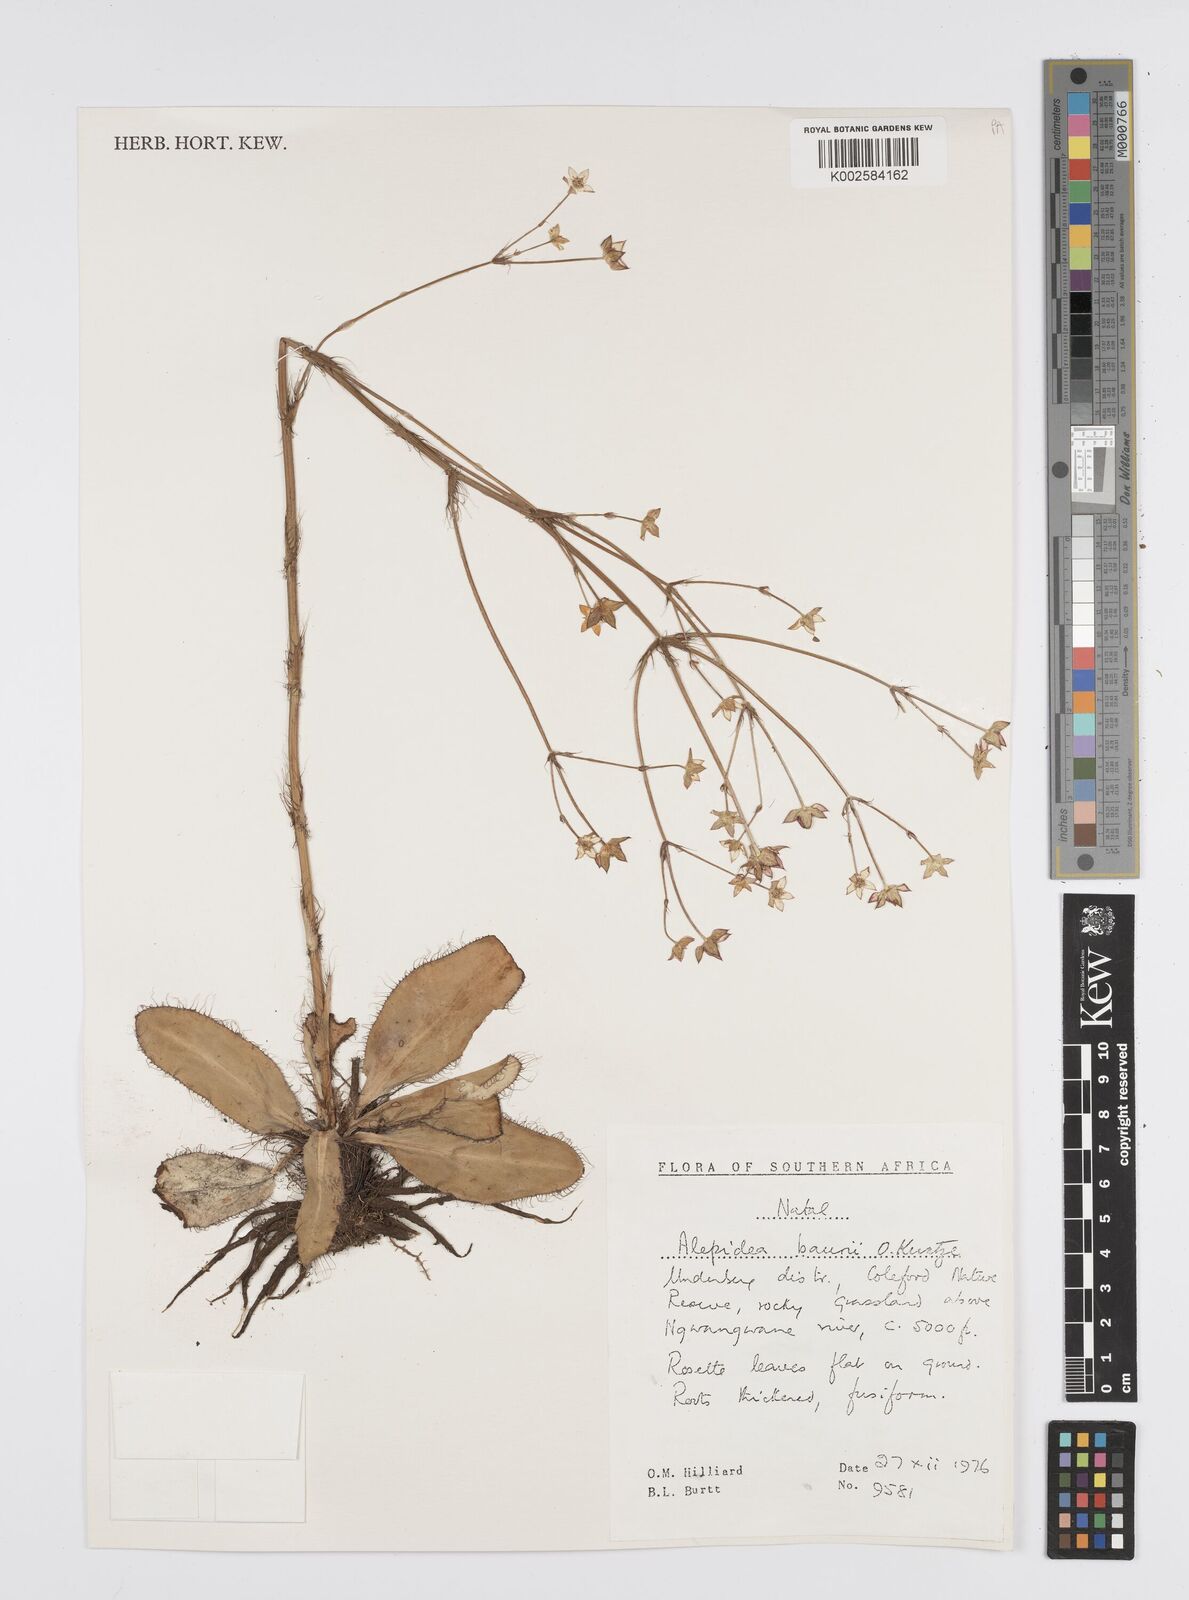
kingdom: Plantae
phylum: Tracheophyta
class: Magnoliopsida
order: Apiales
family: Apiaceae
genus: Alepidea
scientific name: Alepidea natalensis
